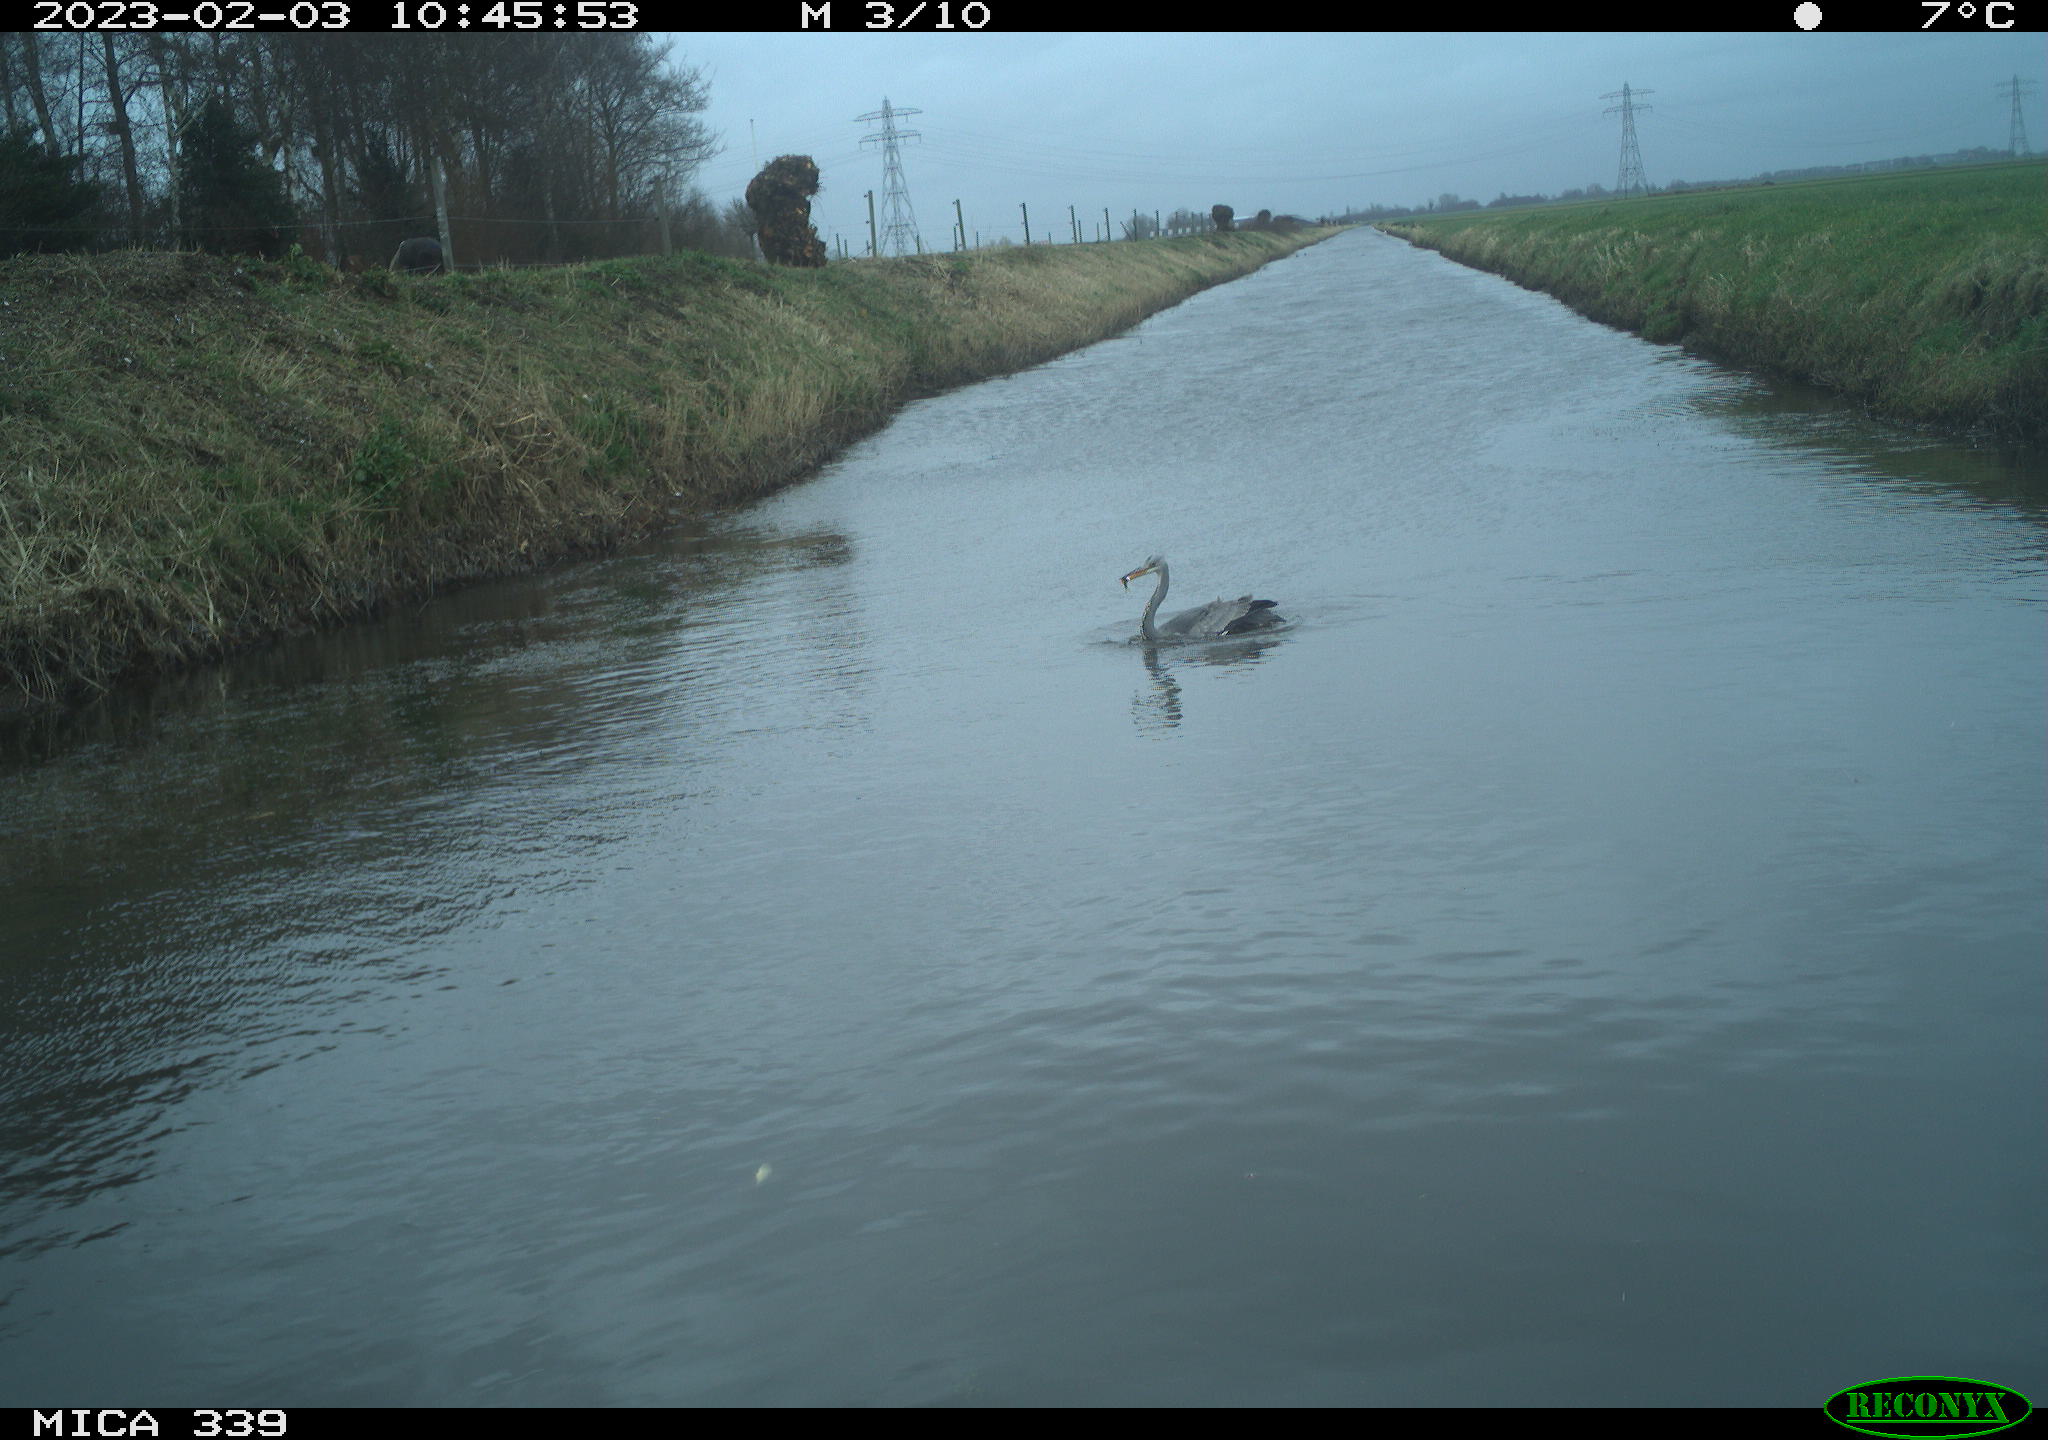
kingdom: Animalia
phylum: Chordata
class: Aves
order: Pelecaniformes
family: Ardeidae
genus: Ardea
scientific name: Ardea cinerea
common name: Grey heron
